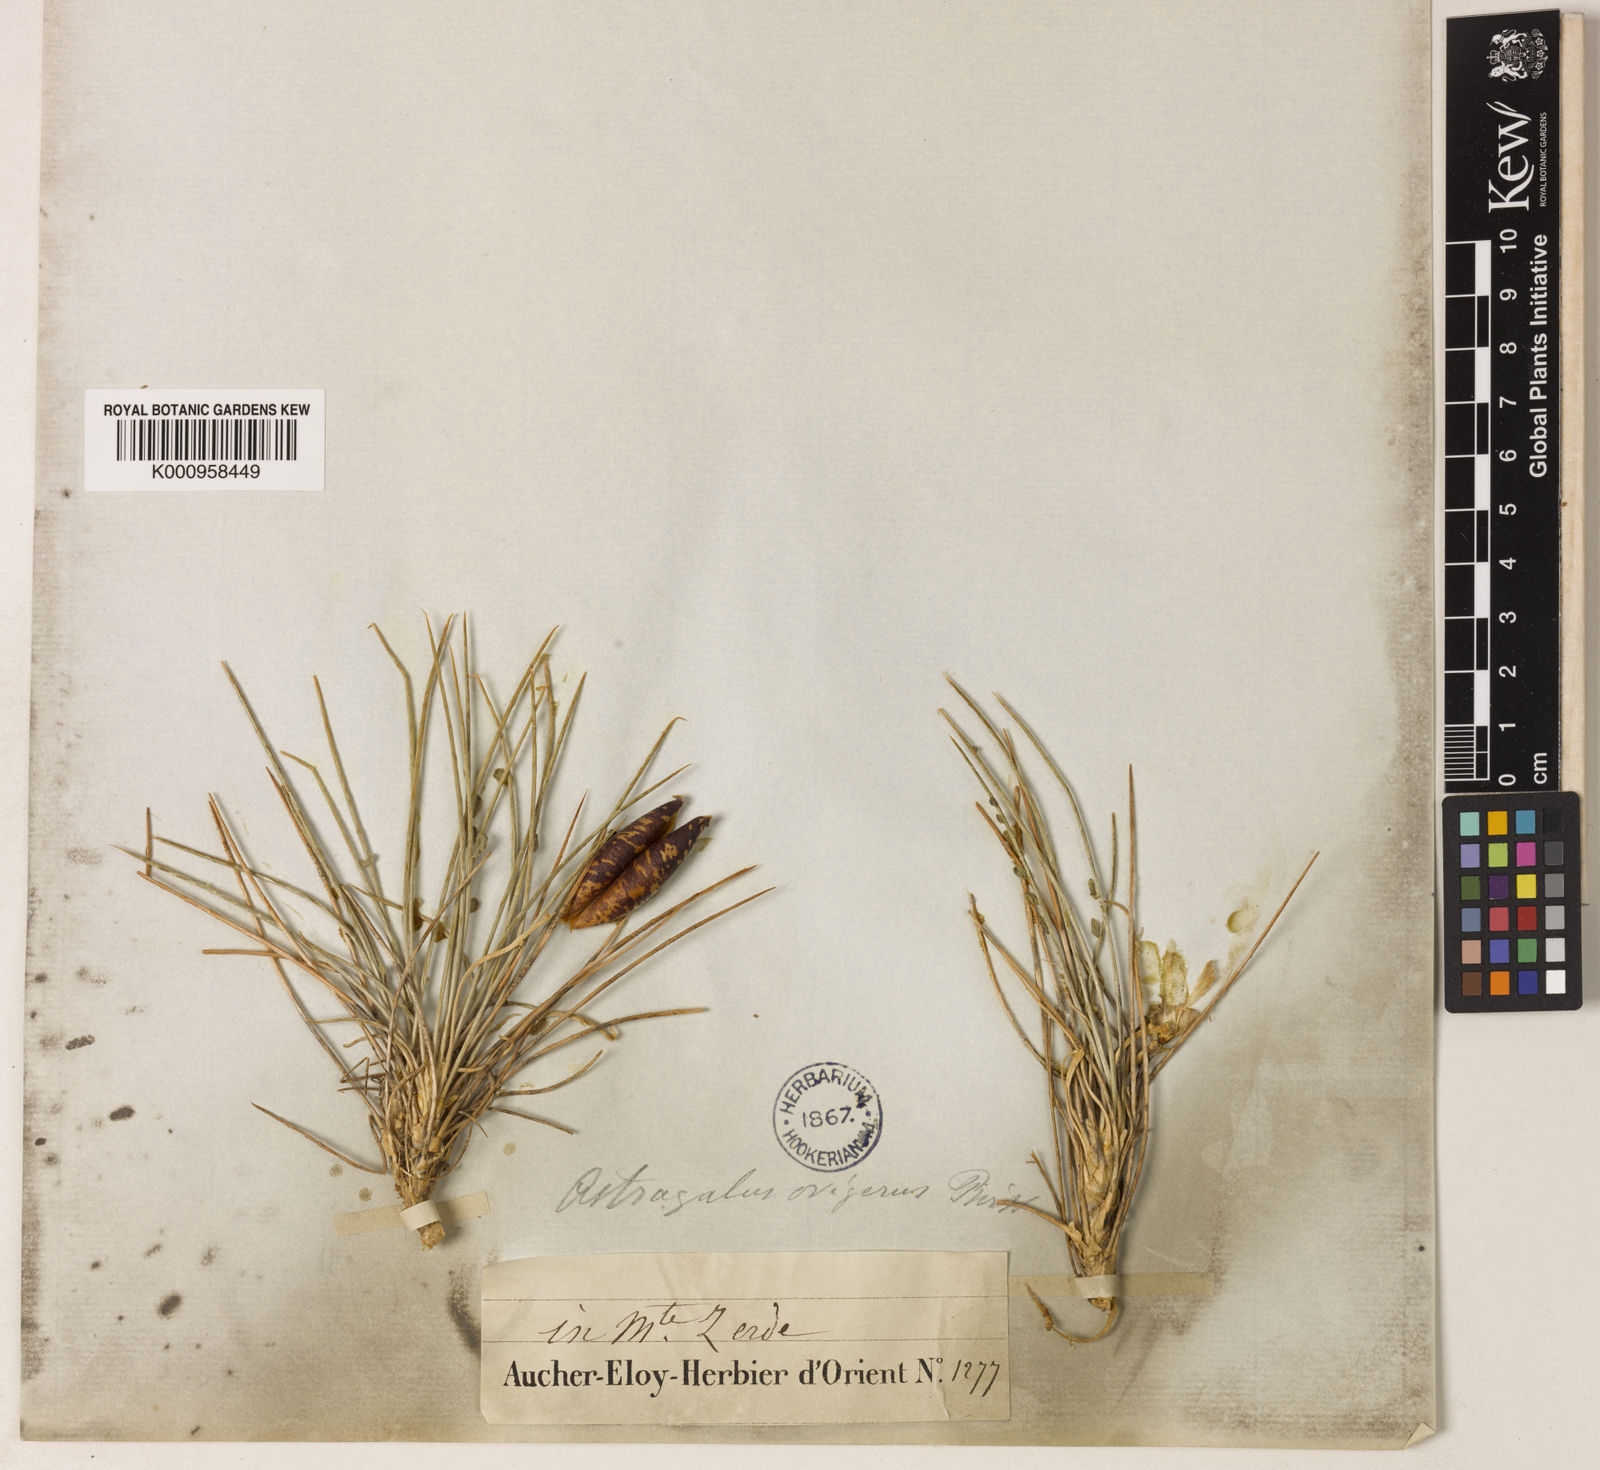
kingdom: Plantae
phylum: Tracheophyta
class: Magnoliopsida
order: Fabales
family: Fabaceae
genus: Astragalus
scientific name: Astragalus
